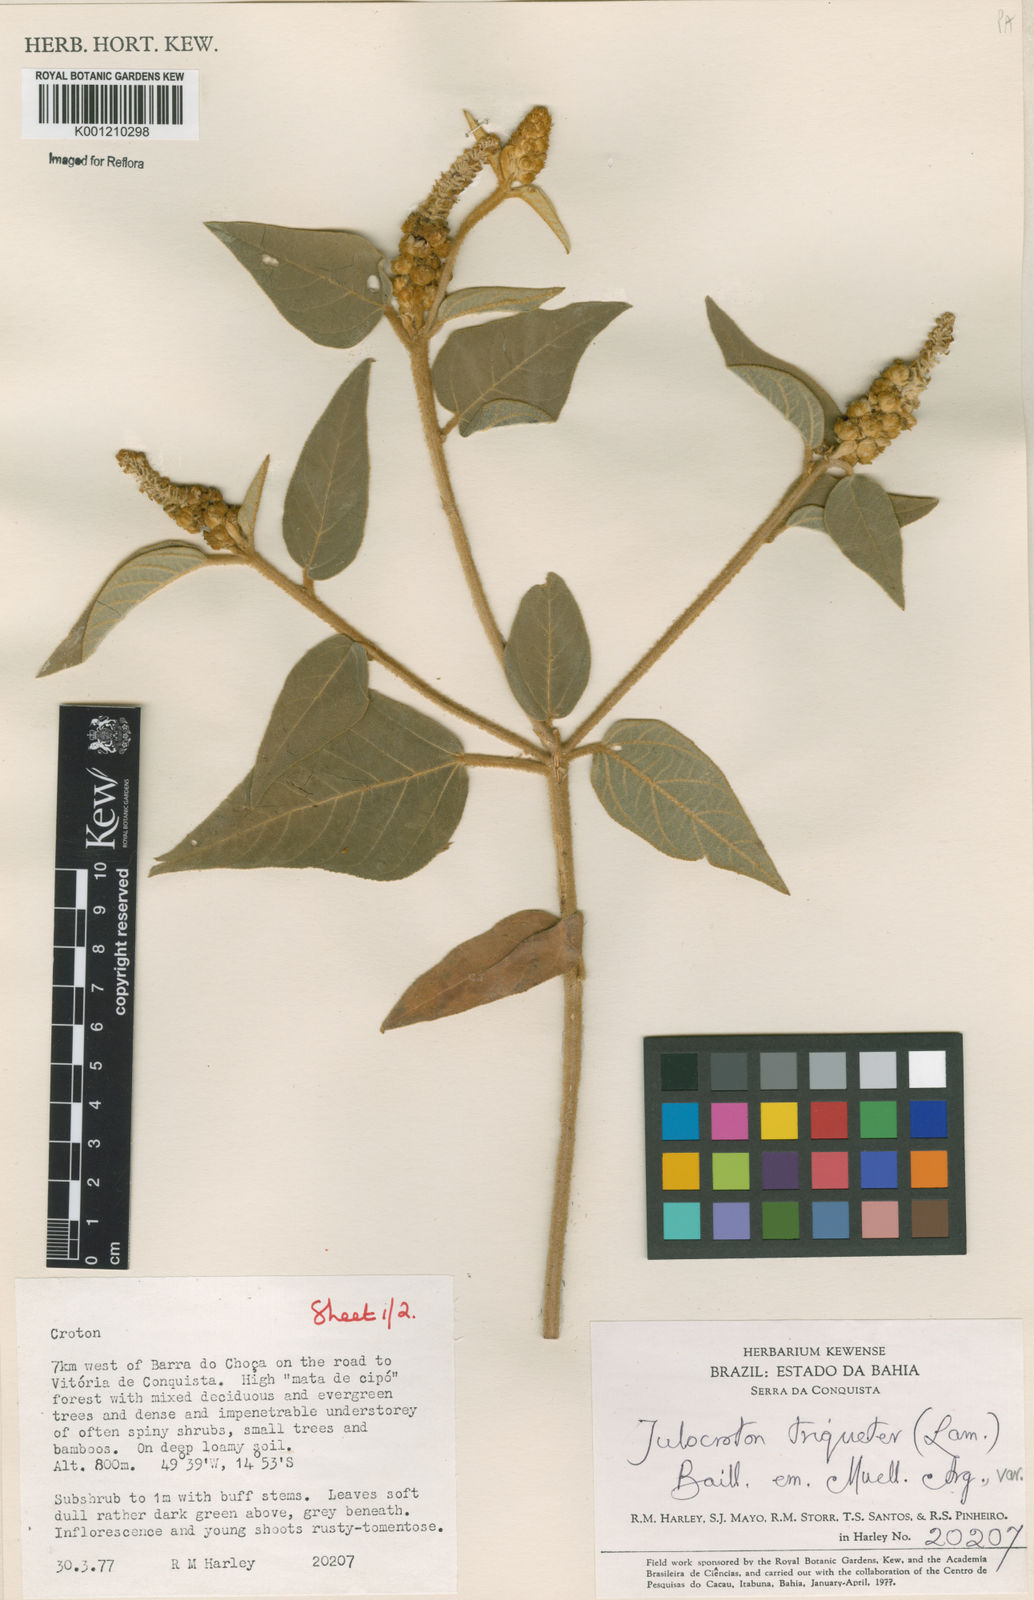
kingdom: Plantae
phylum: Tracheophyta
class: Magnoliopsida
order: Malpighiales
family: Euphorbiaceae
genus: Croton
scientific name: Croton triqueter
